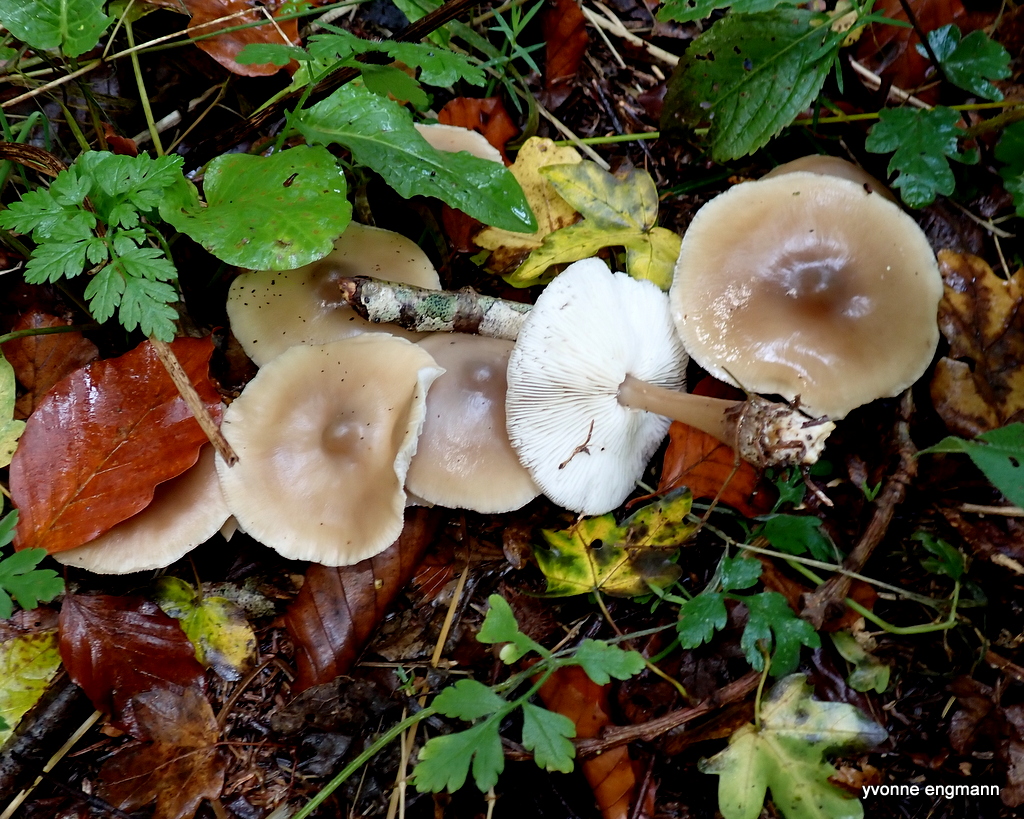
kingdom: Fungi
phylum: Basidiomycota
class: Agaricomycetes
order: Agaricales
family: Omphalotaceae
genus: Rhodocollybia
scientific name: Rhodocollybia asema
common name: horngrå fladhat
